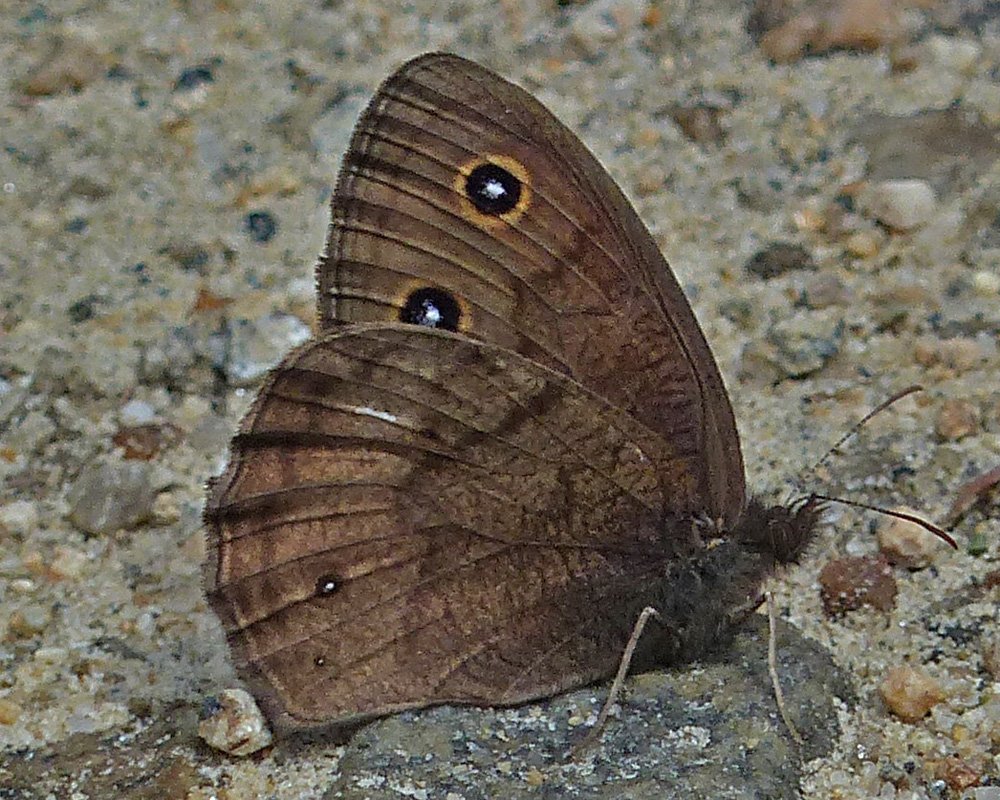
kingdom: Animalia
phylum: Arthropoda
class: Insecta
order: Lepidoptera
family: Nymphalidae
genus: Cercyonis
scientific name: Cercyonis pegala
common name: Common Wood-Nymph
